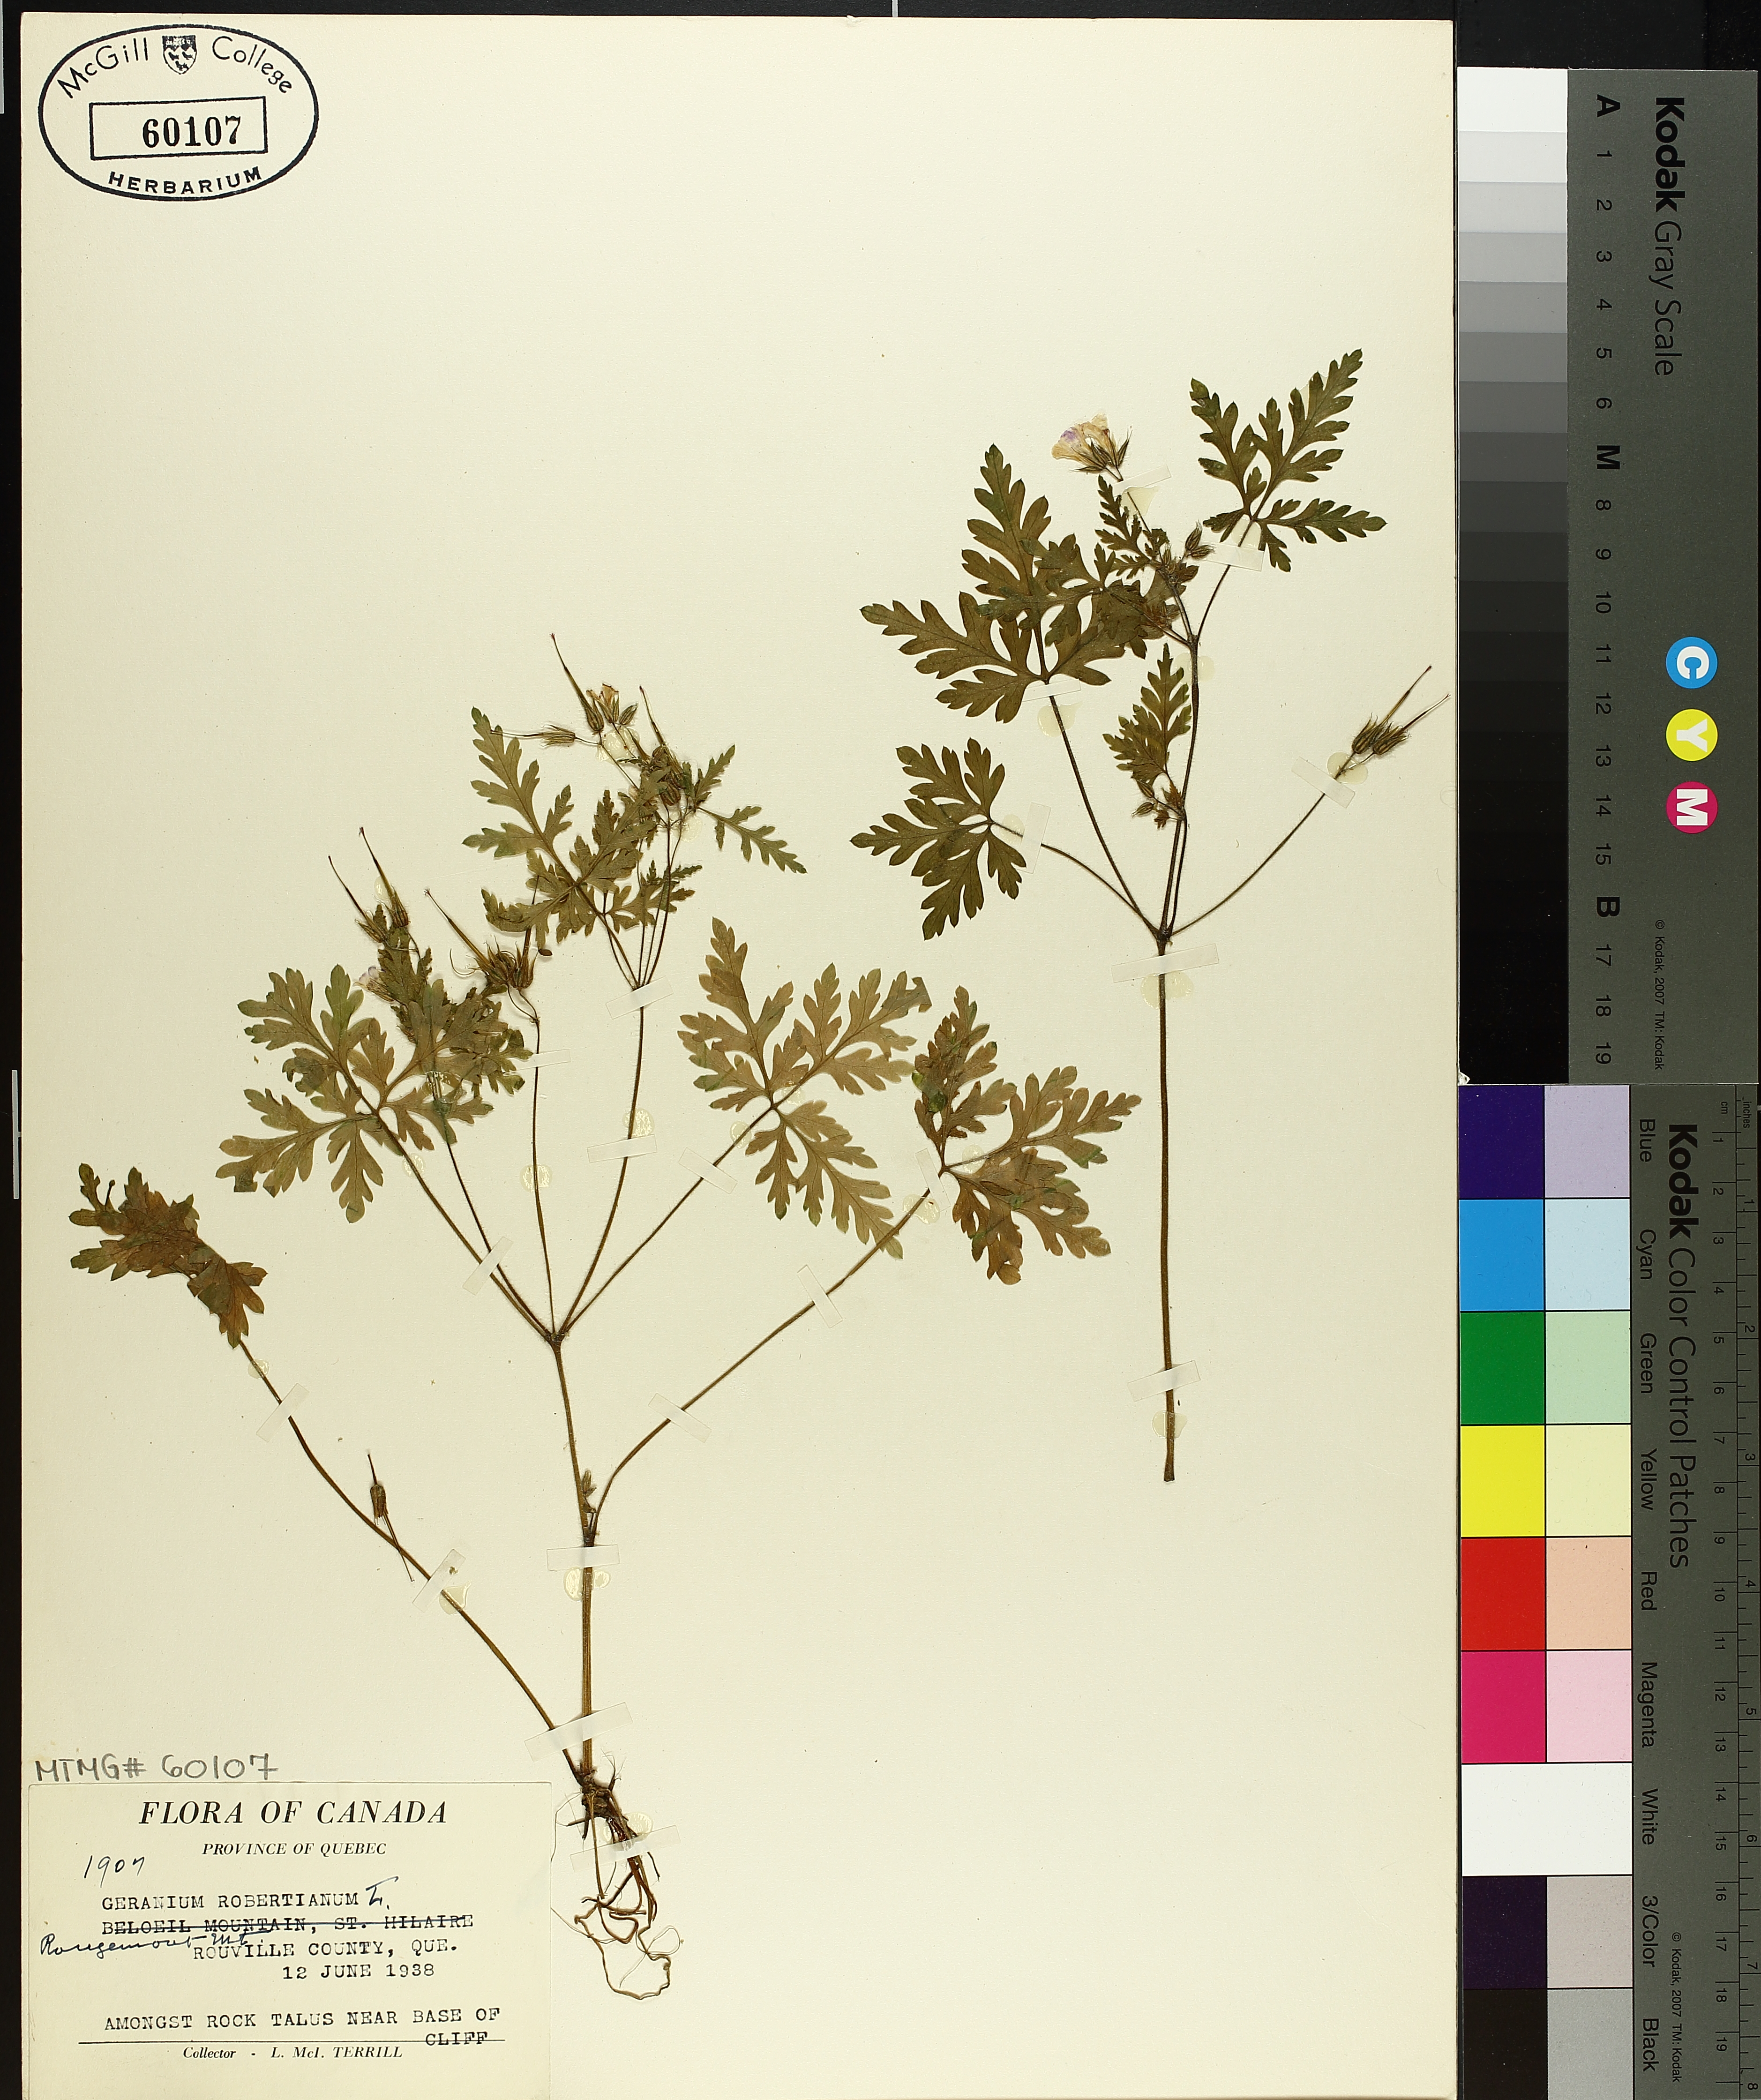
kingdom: Plantae
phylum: Tracheophyta
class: Magnoliopsida
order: Geraniales
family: Geraniaceae
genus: Geranium
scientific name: Geranium robertianum
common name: Herb-robert
